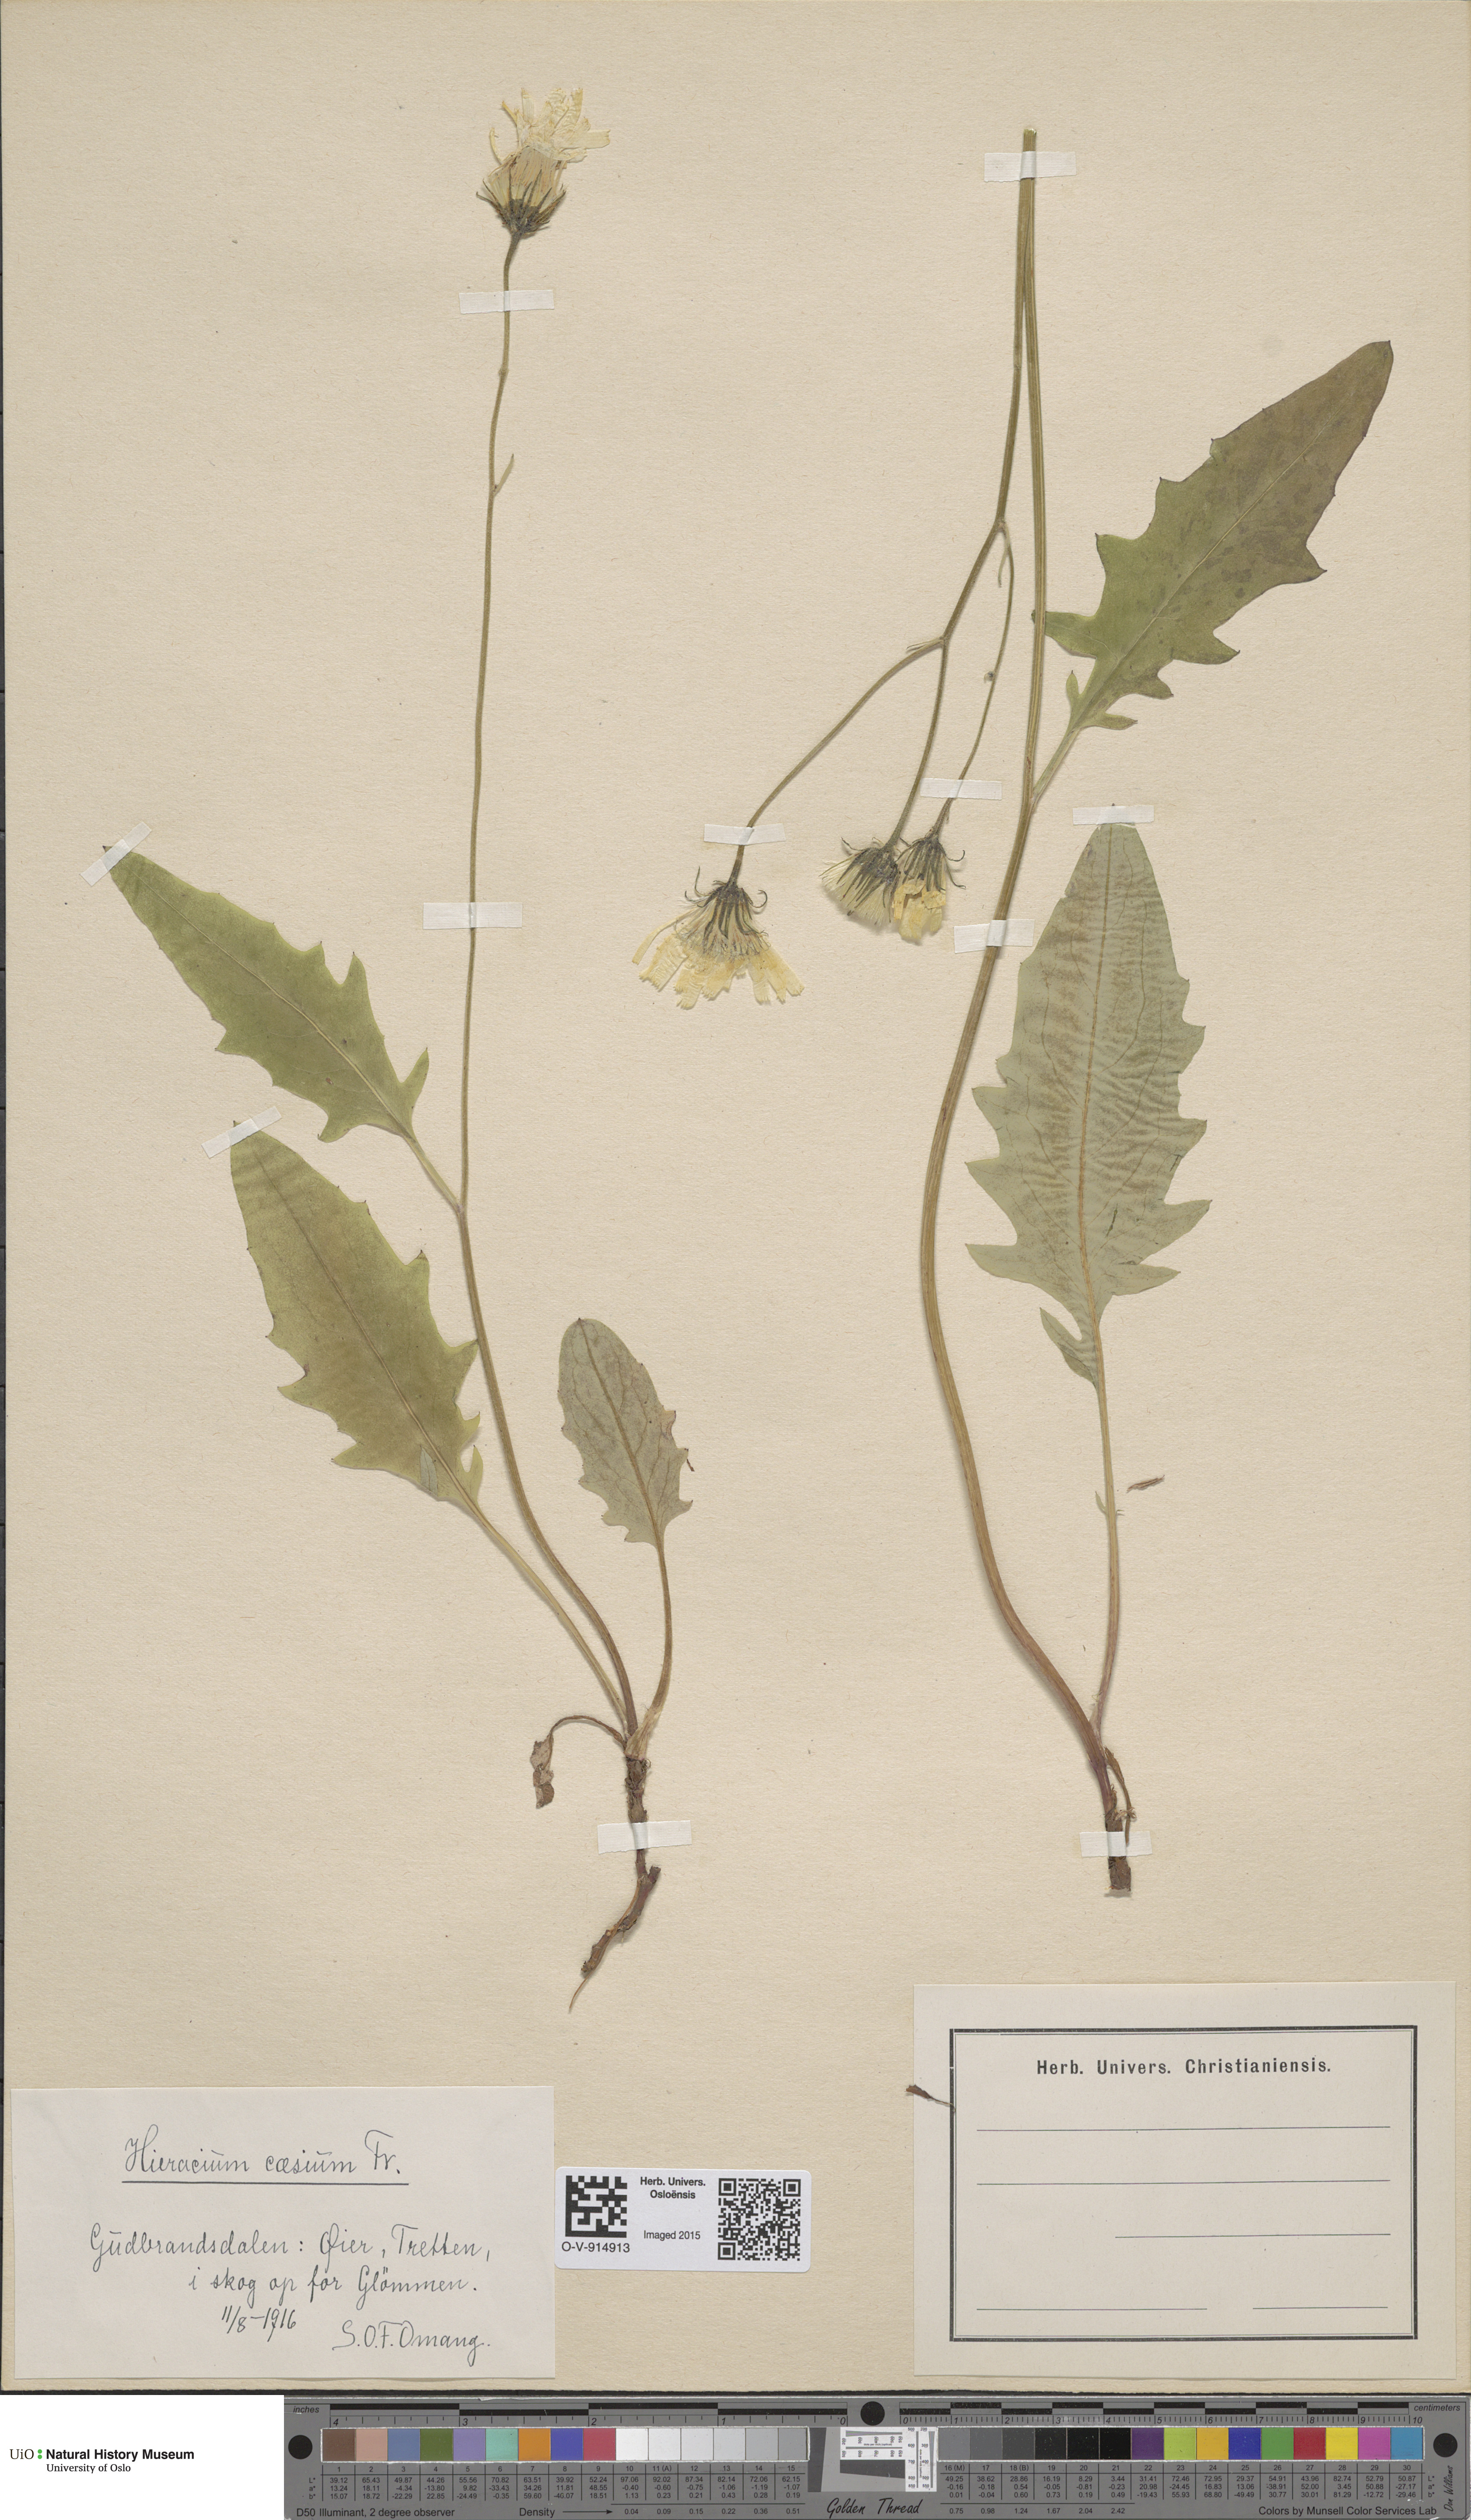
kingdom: Plantae
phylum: Tracheophyta
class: Magnoliopsida
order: Asterales
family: Asteraceae
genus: Hieracium
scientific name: Hieracium caesium
